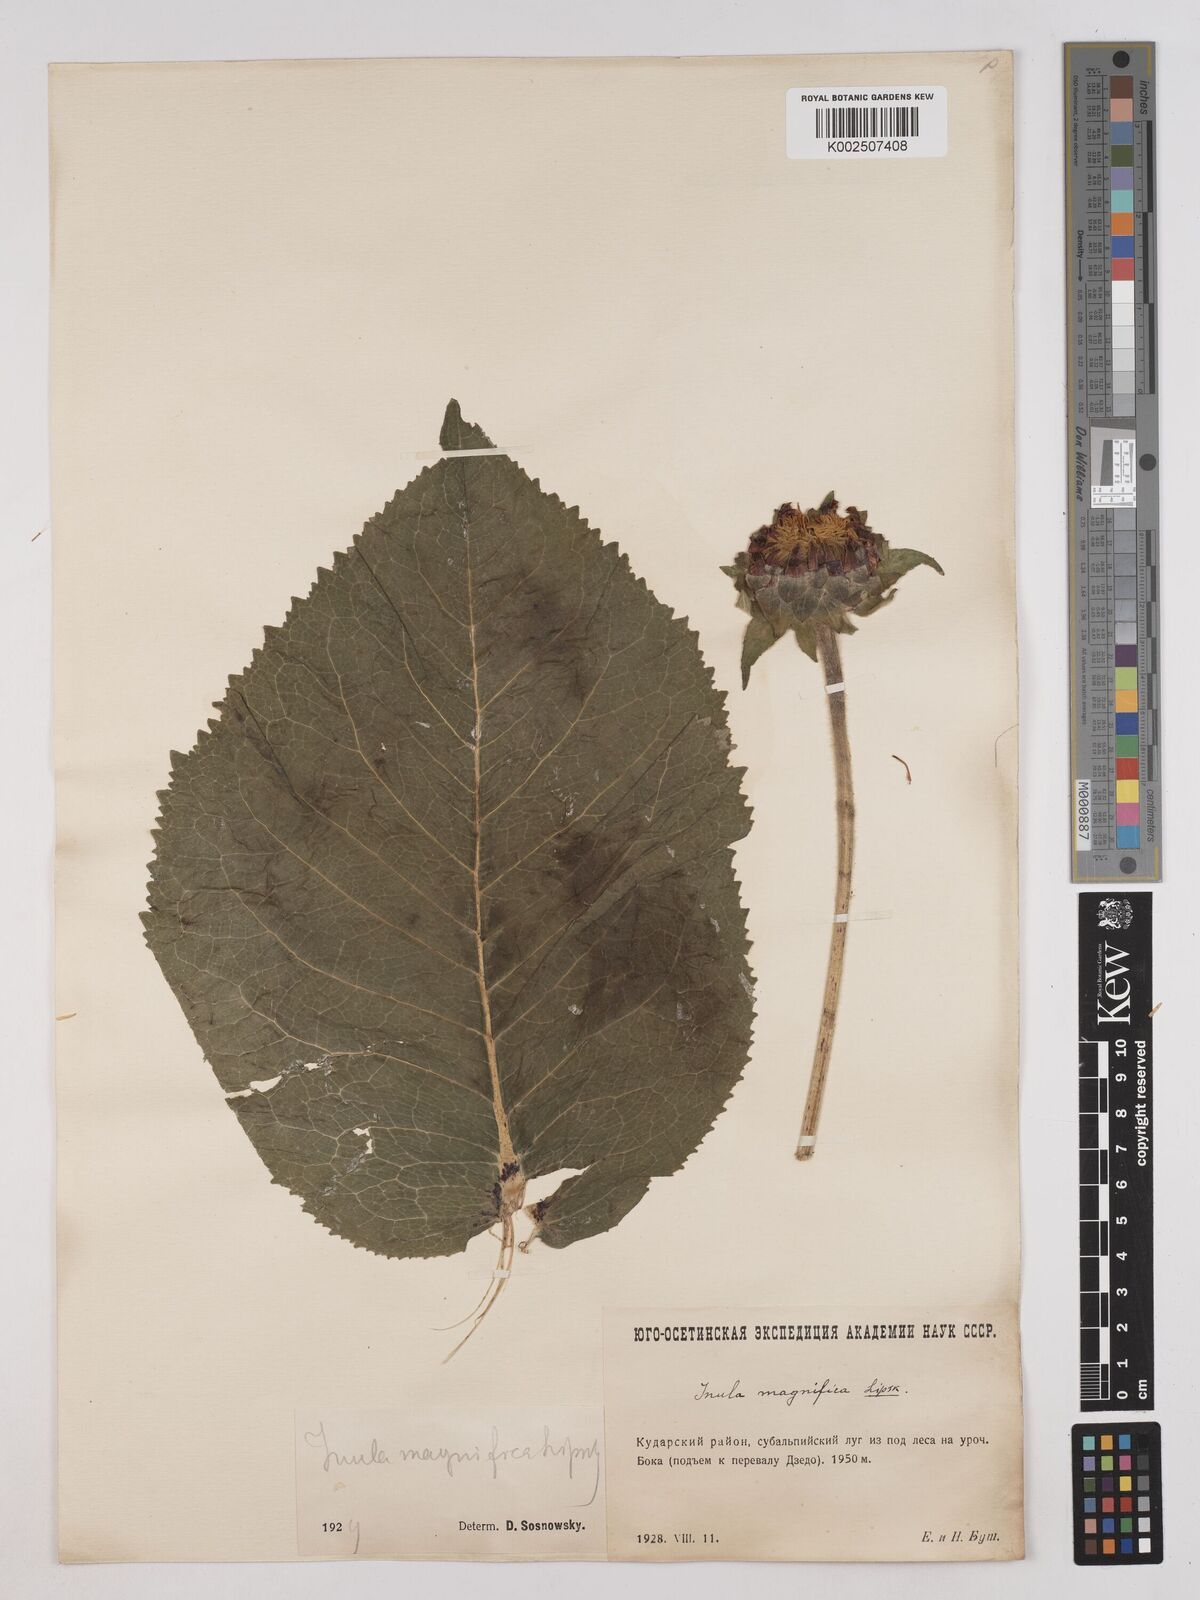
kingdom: Plantae
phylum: Tracheophyta
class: Magnoliopsida
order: Asterales
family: Asteraceae
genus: Inula
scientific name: Inula magnifica
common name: Giant fleabane
